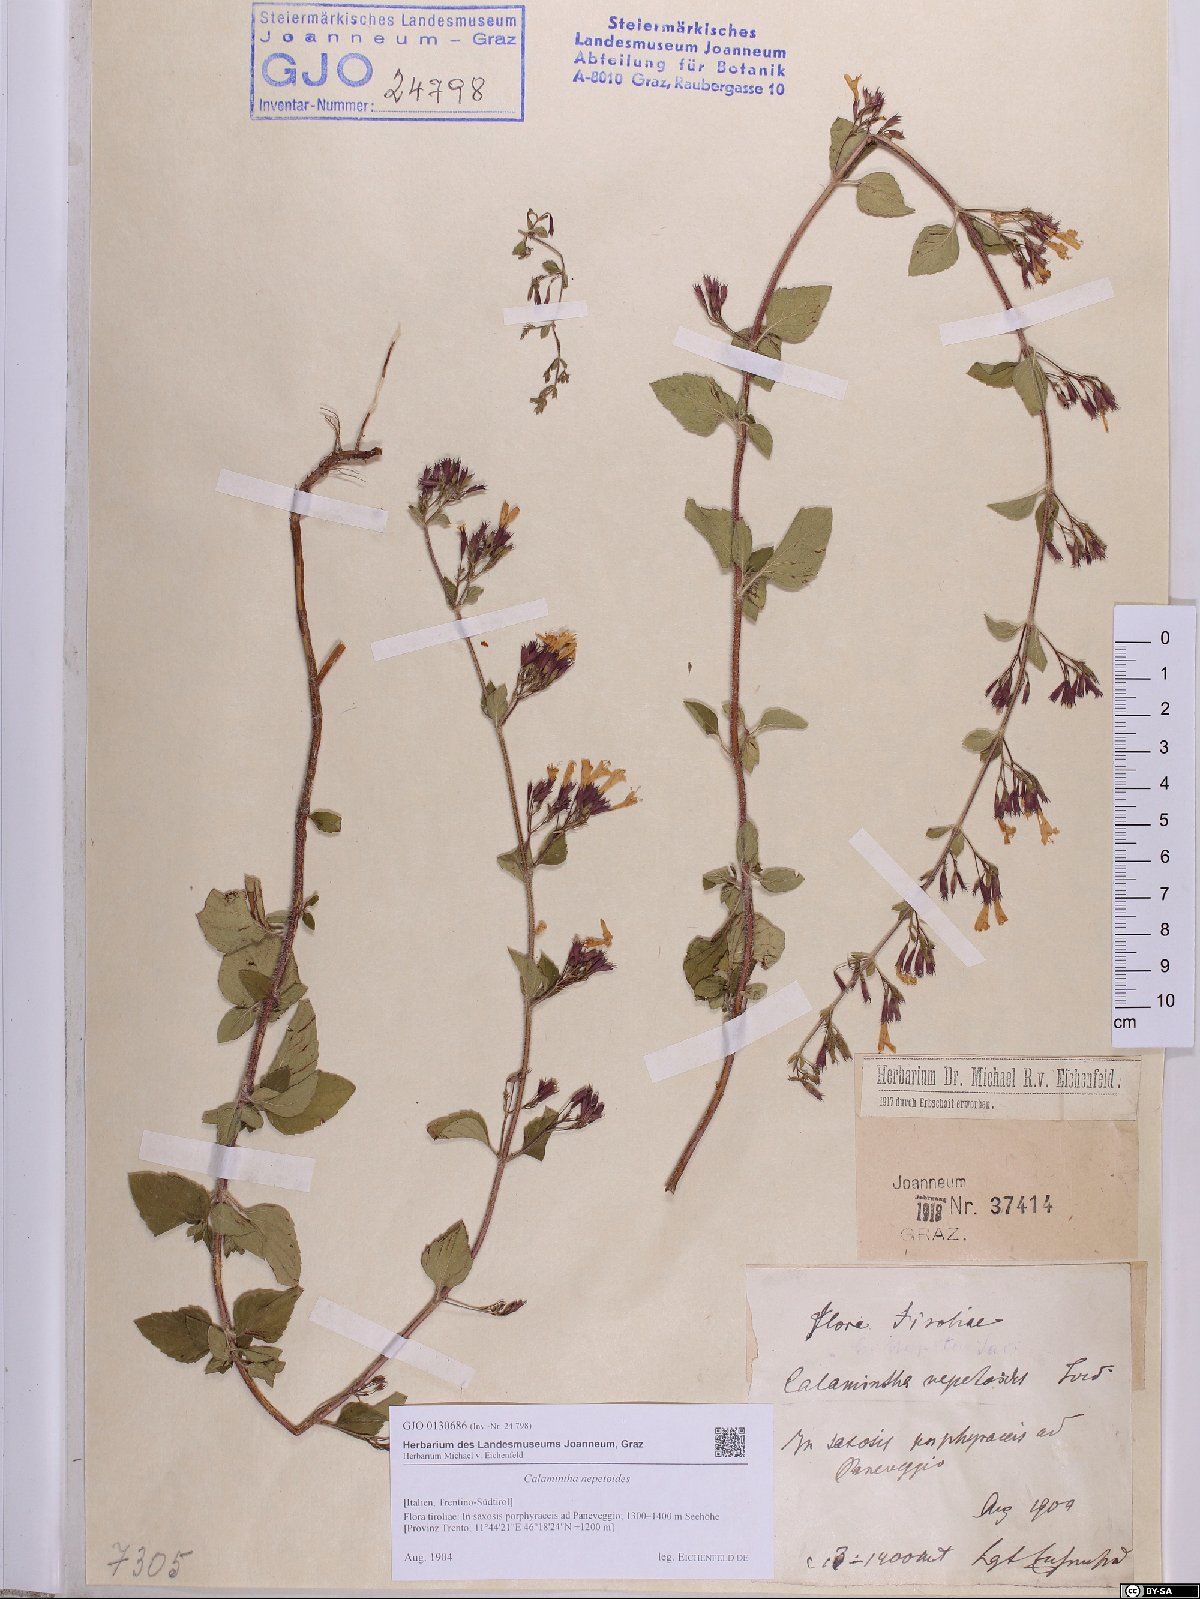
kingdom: Plantae
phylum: Tracheophyta
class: Magnoliopsida
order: Lamiales
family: Lamiaceae
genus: Clinopodium
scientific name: Clinopodium nepeta
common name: Lesser calamint
